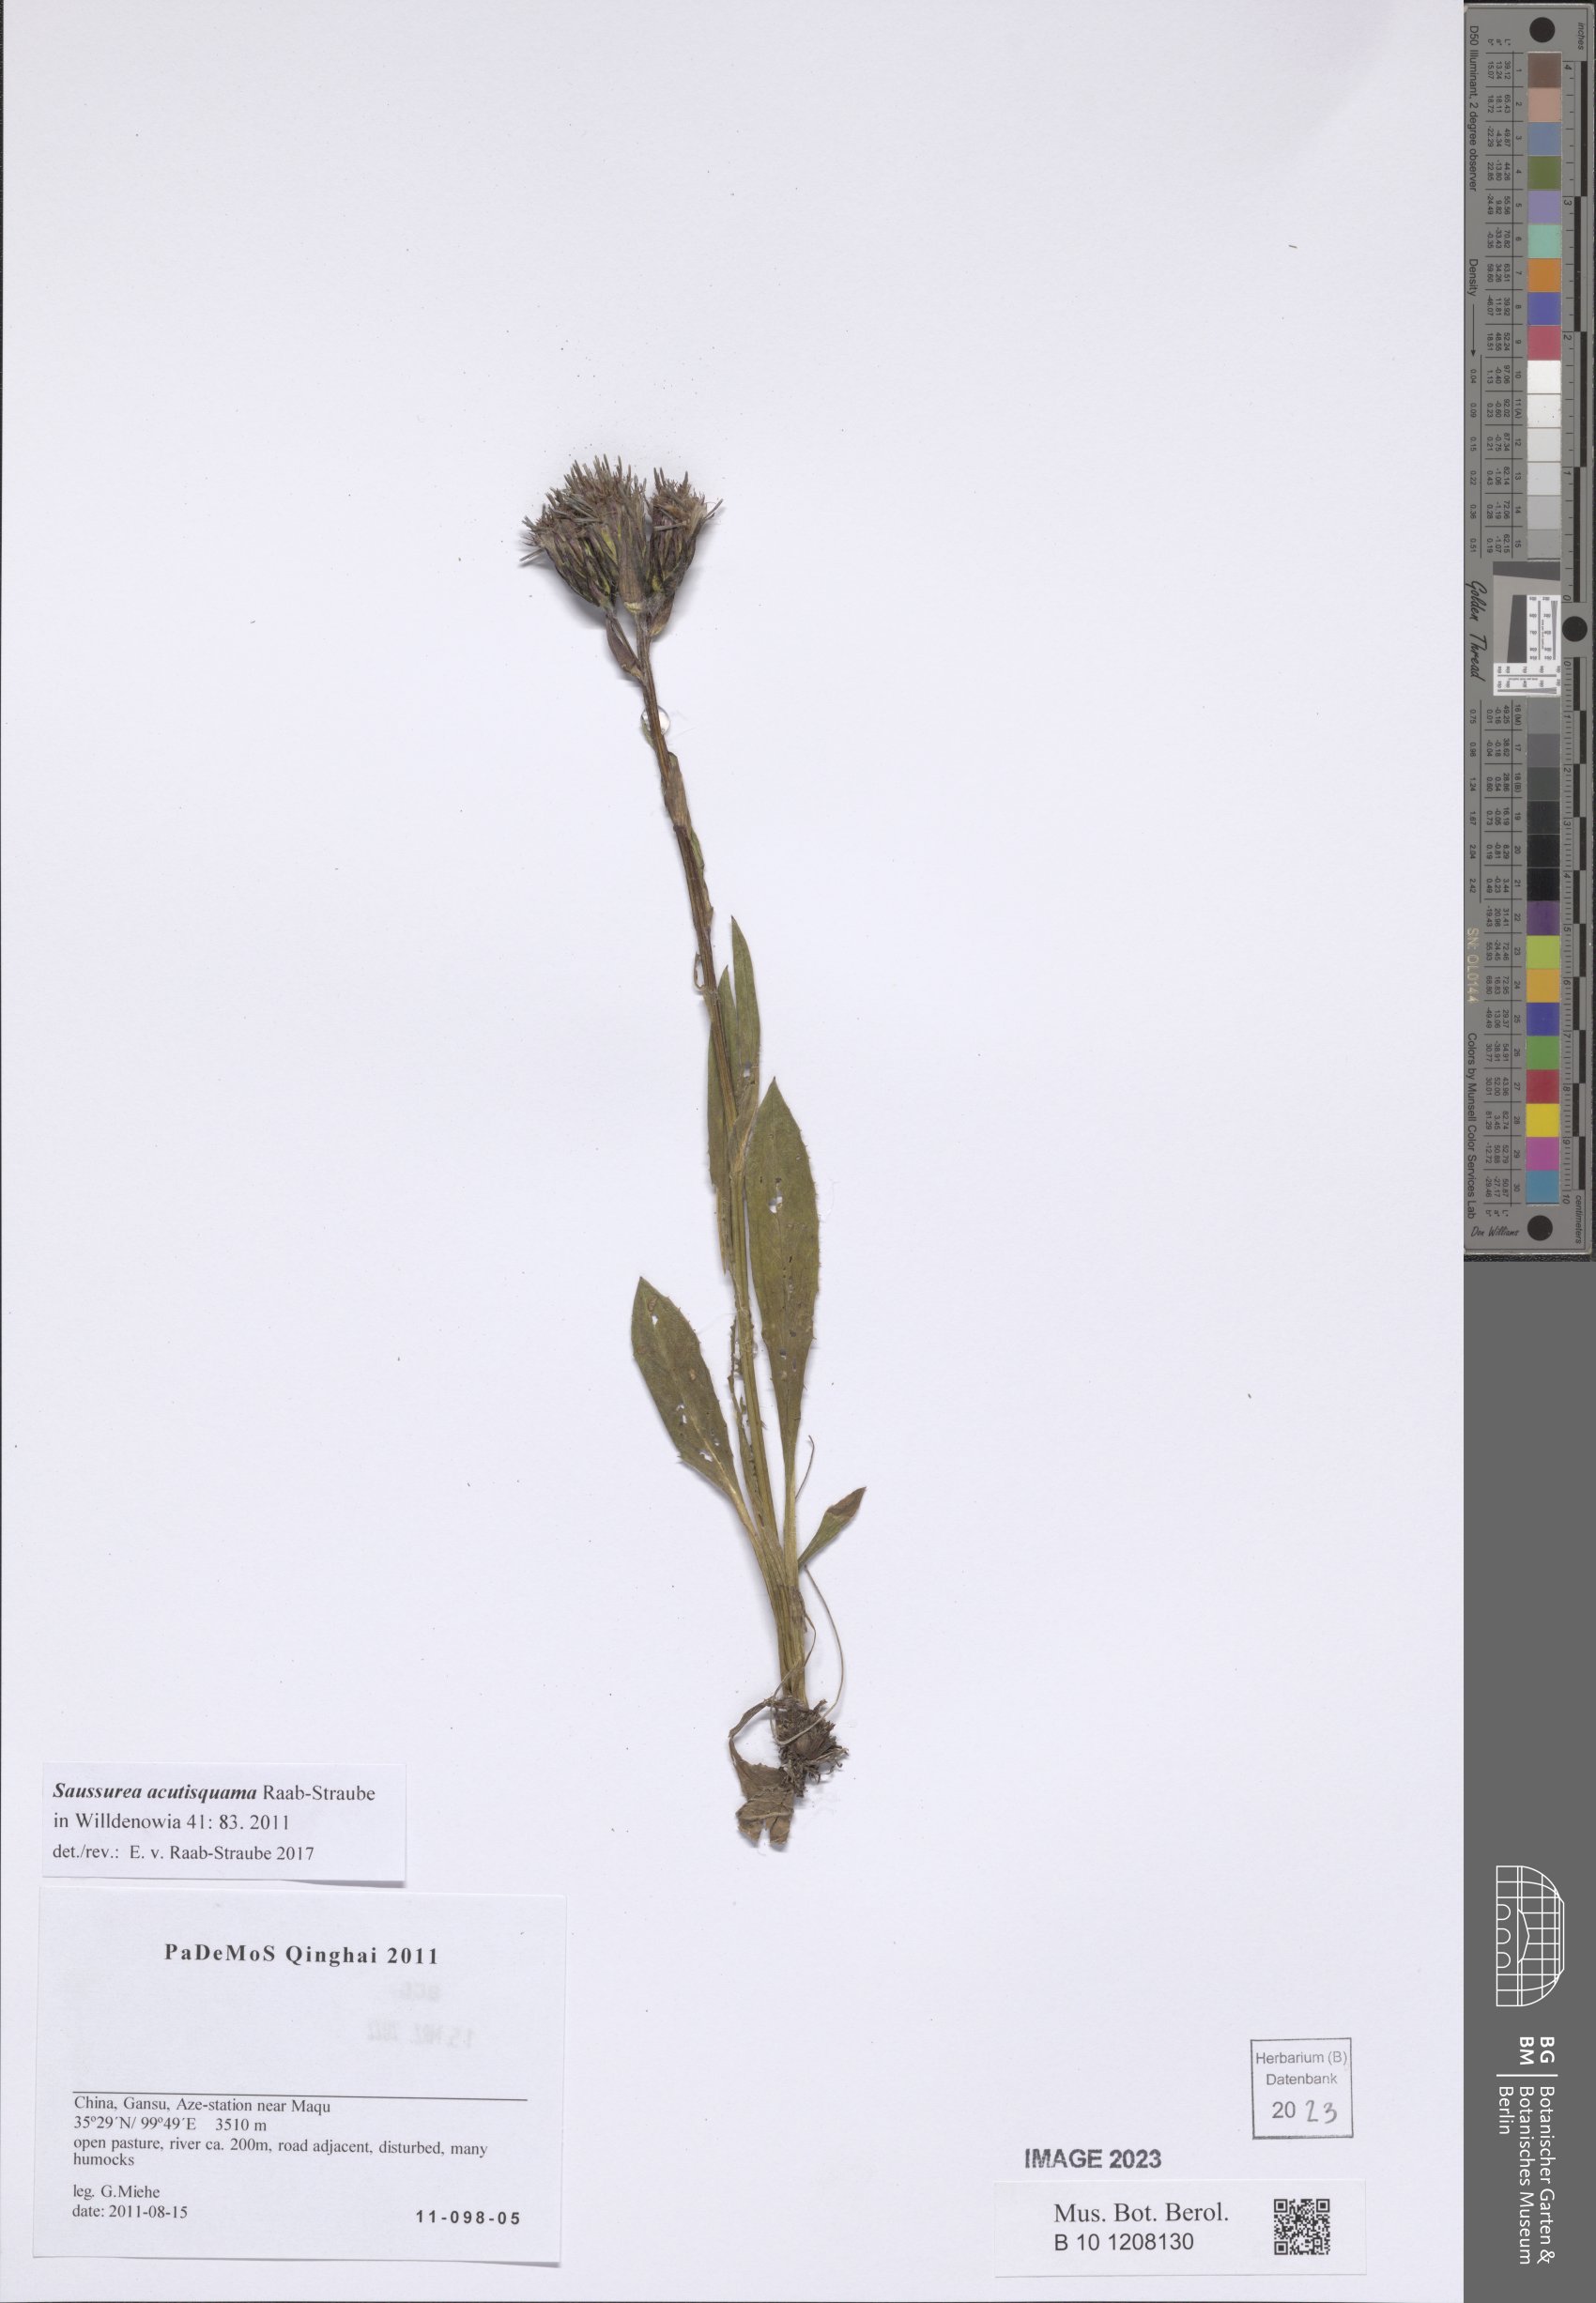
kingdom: Plantae
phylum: Tracheophyta
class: Magnoliopsida
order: Asterales
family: Asteraceae
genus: Saussurea
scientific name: Saussurea acutisquama
